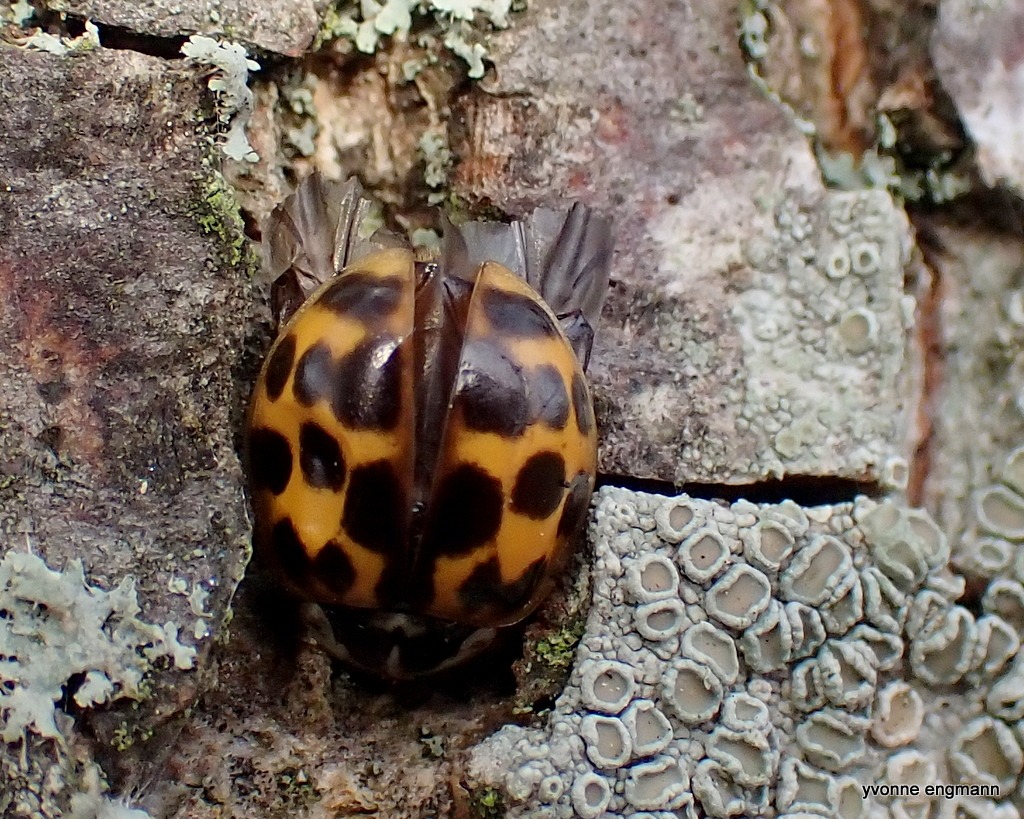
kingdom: Animalia
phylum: Arthropoda
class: Insecta
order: Coleoptera
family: Coccinellidae
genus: Harmonia
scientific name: Harmonia axyridis
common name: Harlekinmariehøne
